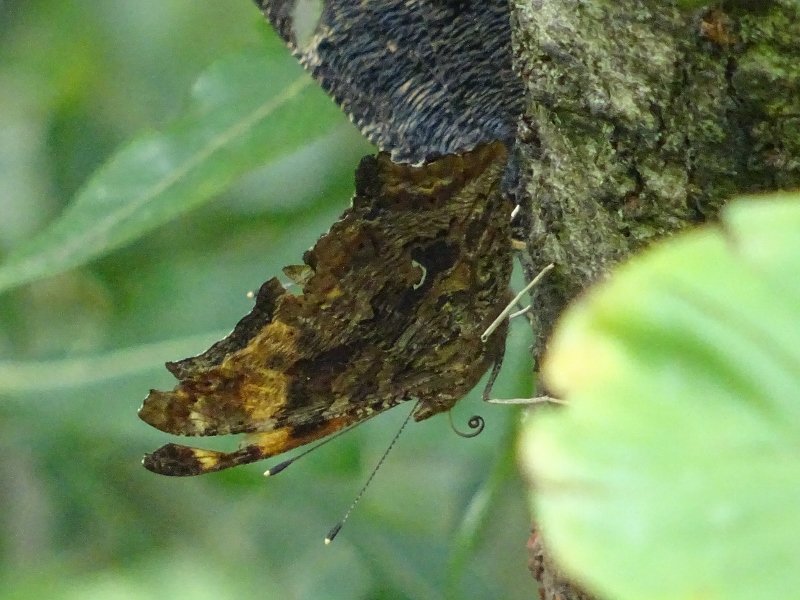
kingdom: Animalia
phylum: Arthropoda
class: Insecta
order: Lepidoptera
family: Nymphalidae
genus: Polygonia
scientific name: Polygonia comma
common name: Eastern Comma
